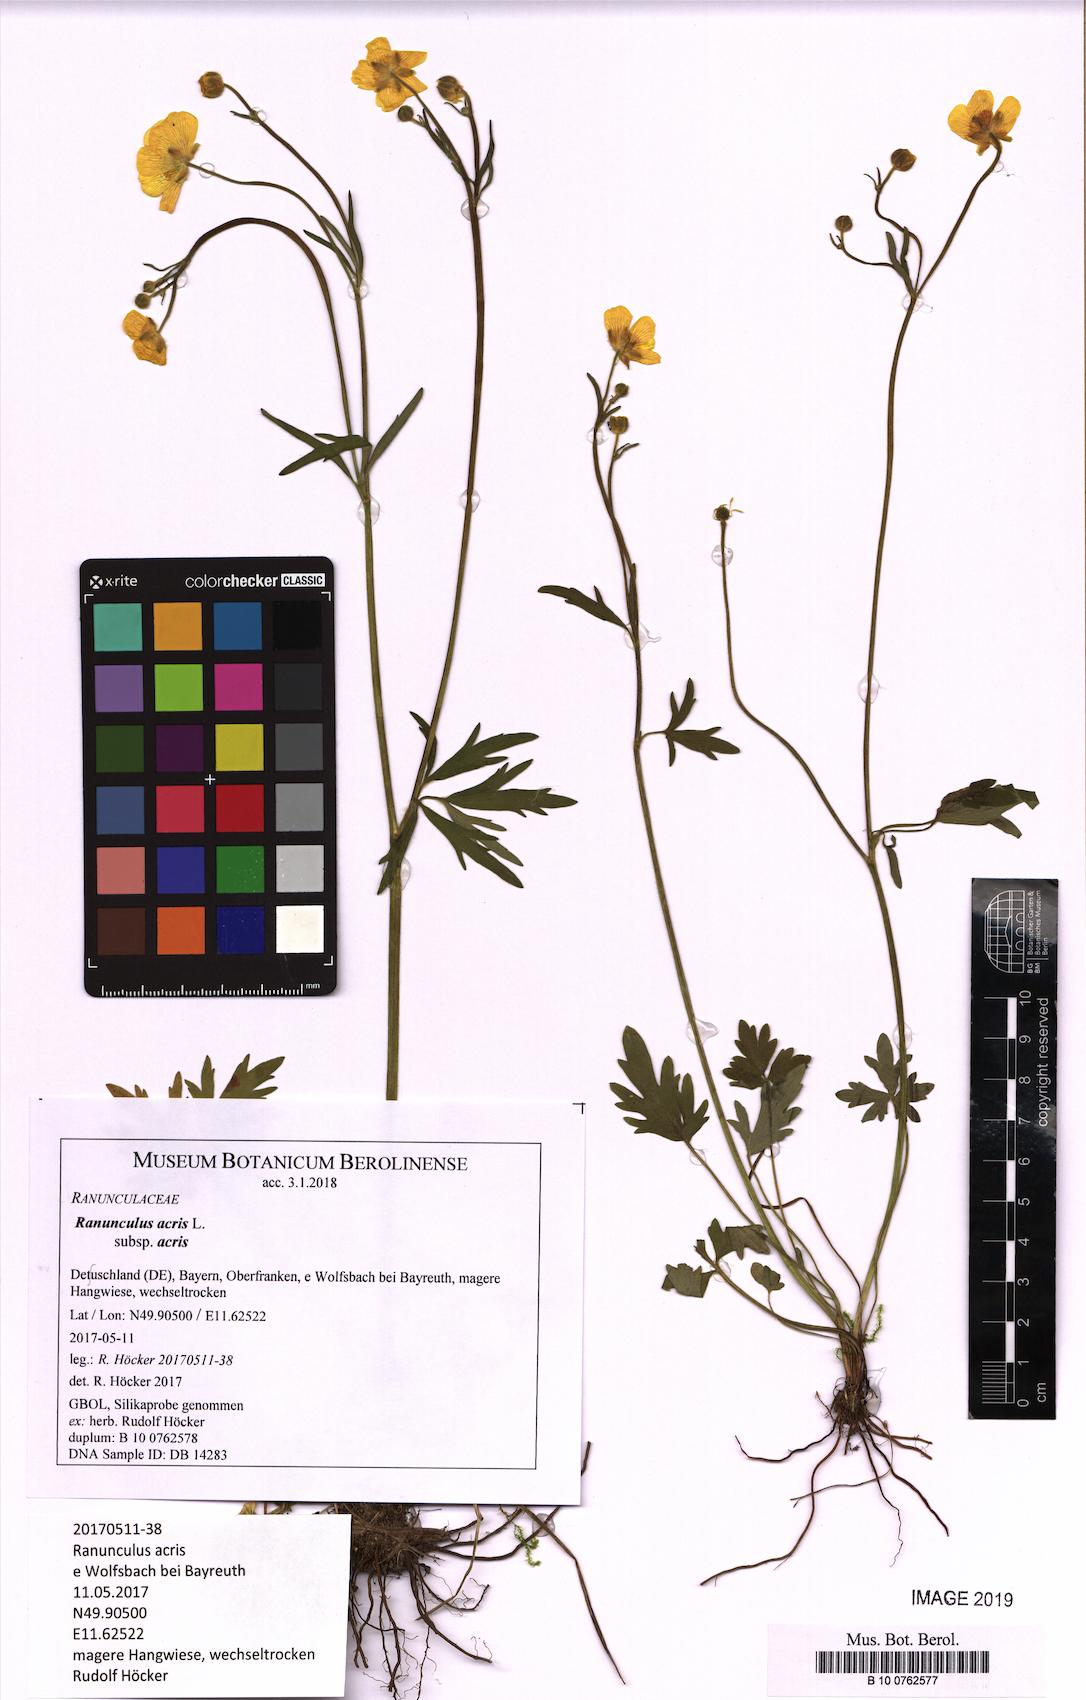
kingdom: Plantae
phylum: Tracheophyta
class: Magnoliopsida
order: Ranunculales
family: Ranunculaceae
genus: Ranunculus
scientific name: Ranunculus acris
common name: Meadow buttercup
